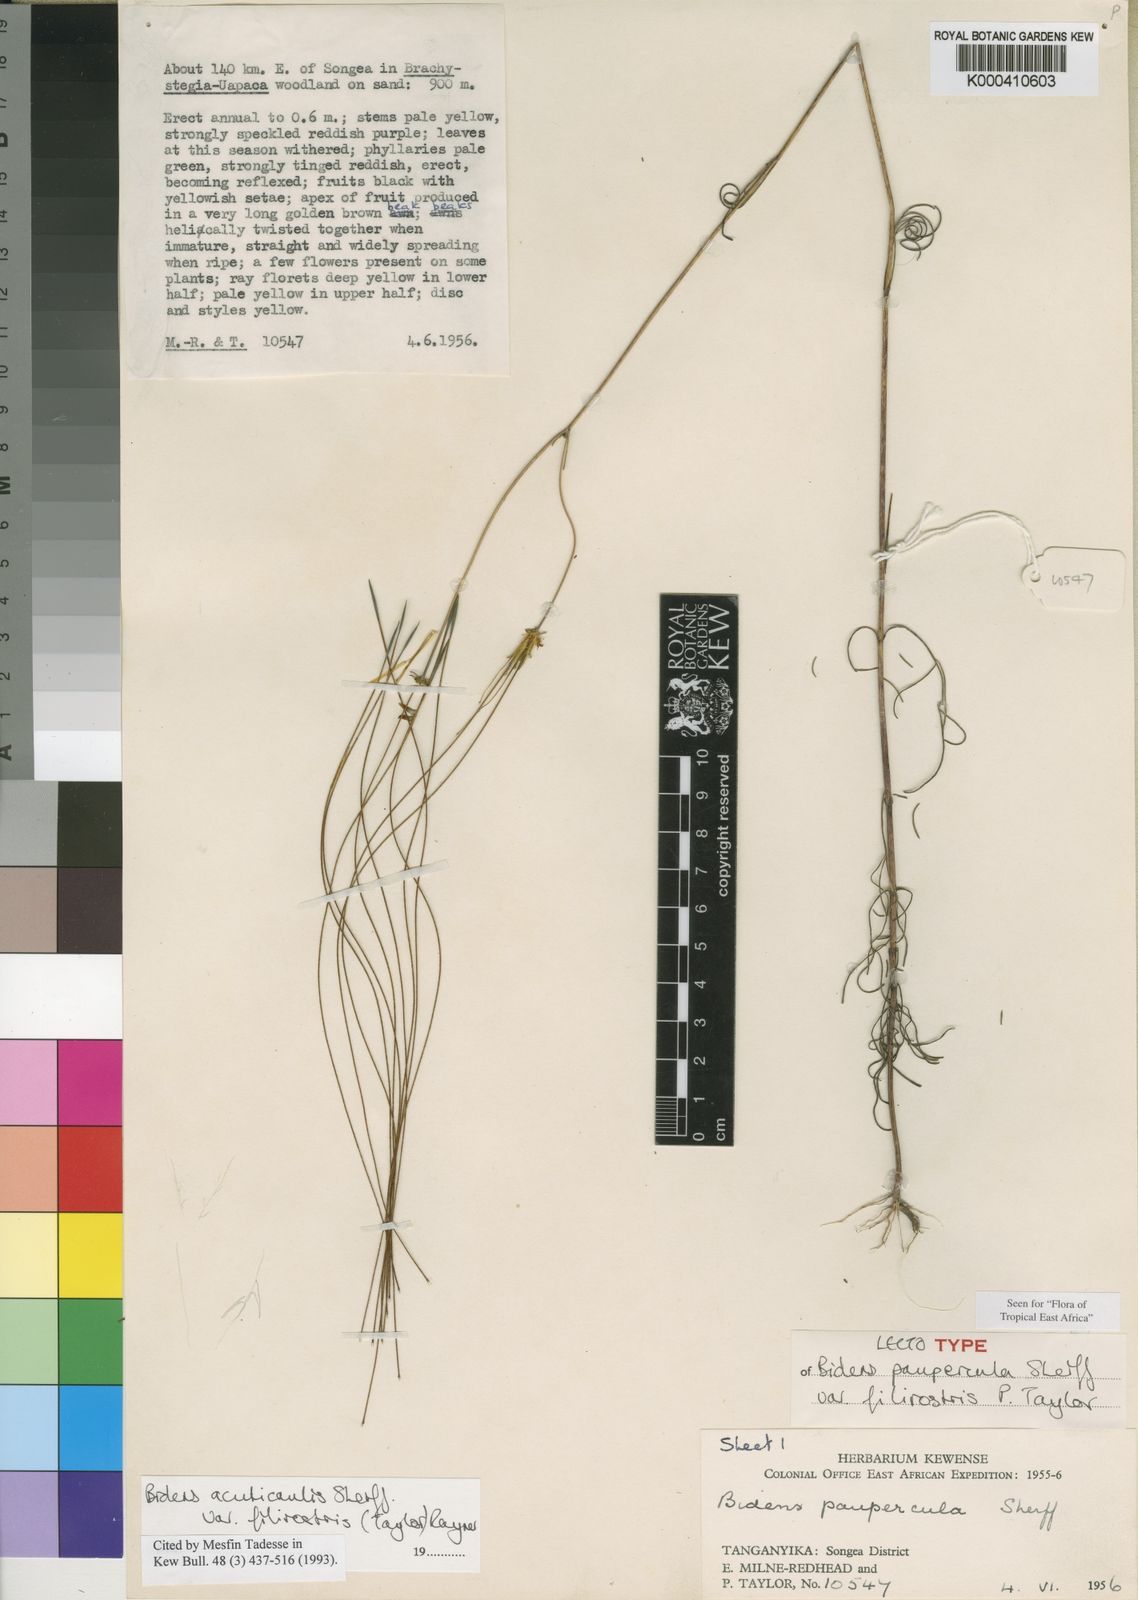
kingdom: Plantae
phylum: Tracheophyta
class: Magnoliopsida
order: Asterales
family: Asteraceae
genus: Bidens
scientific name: Bidens acuticaulis
